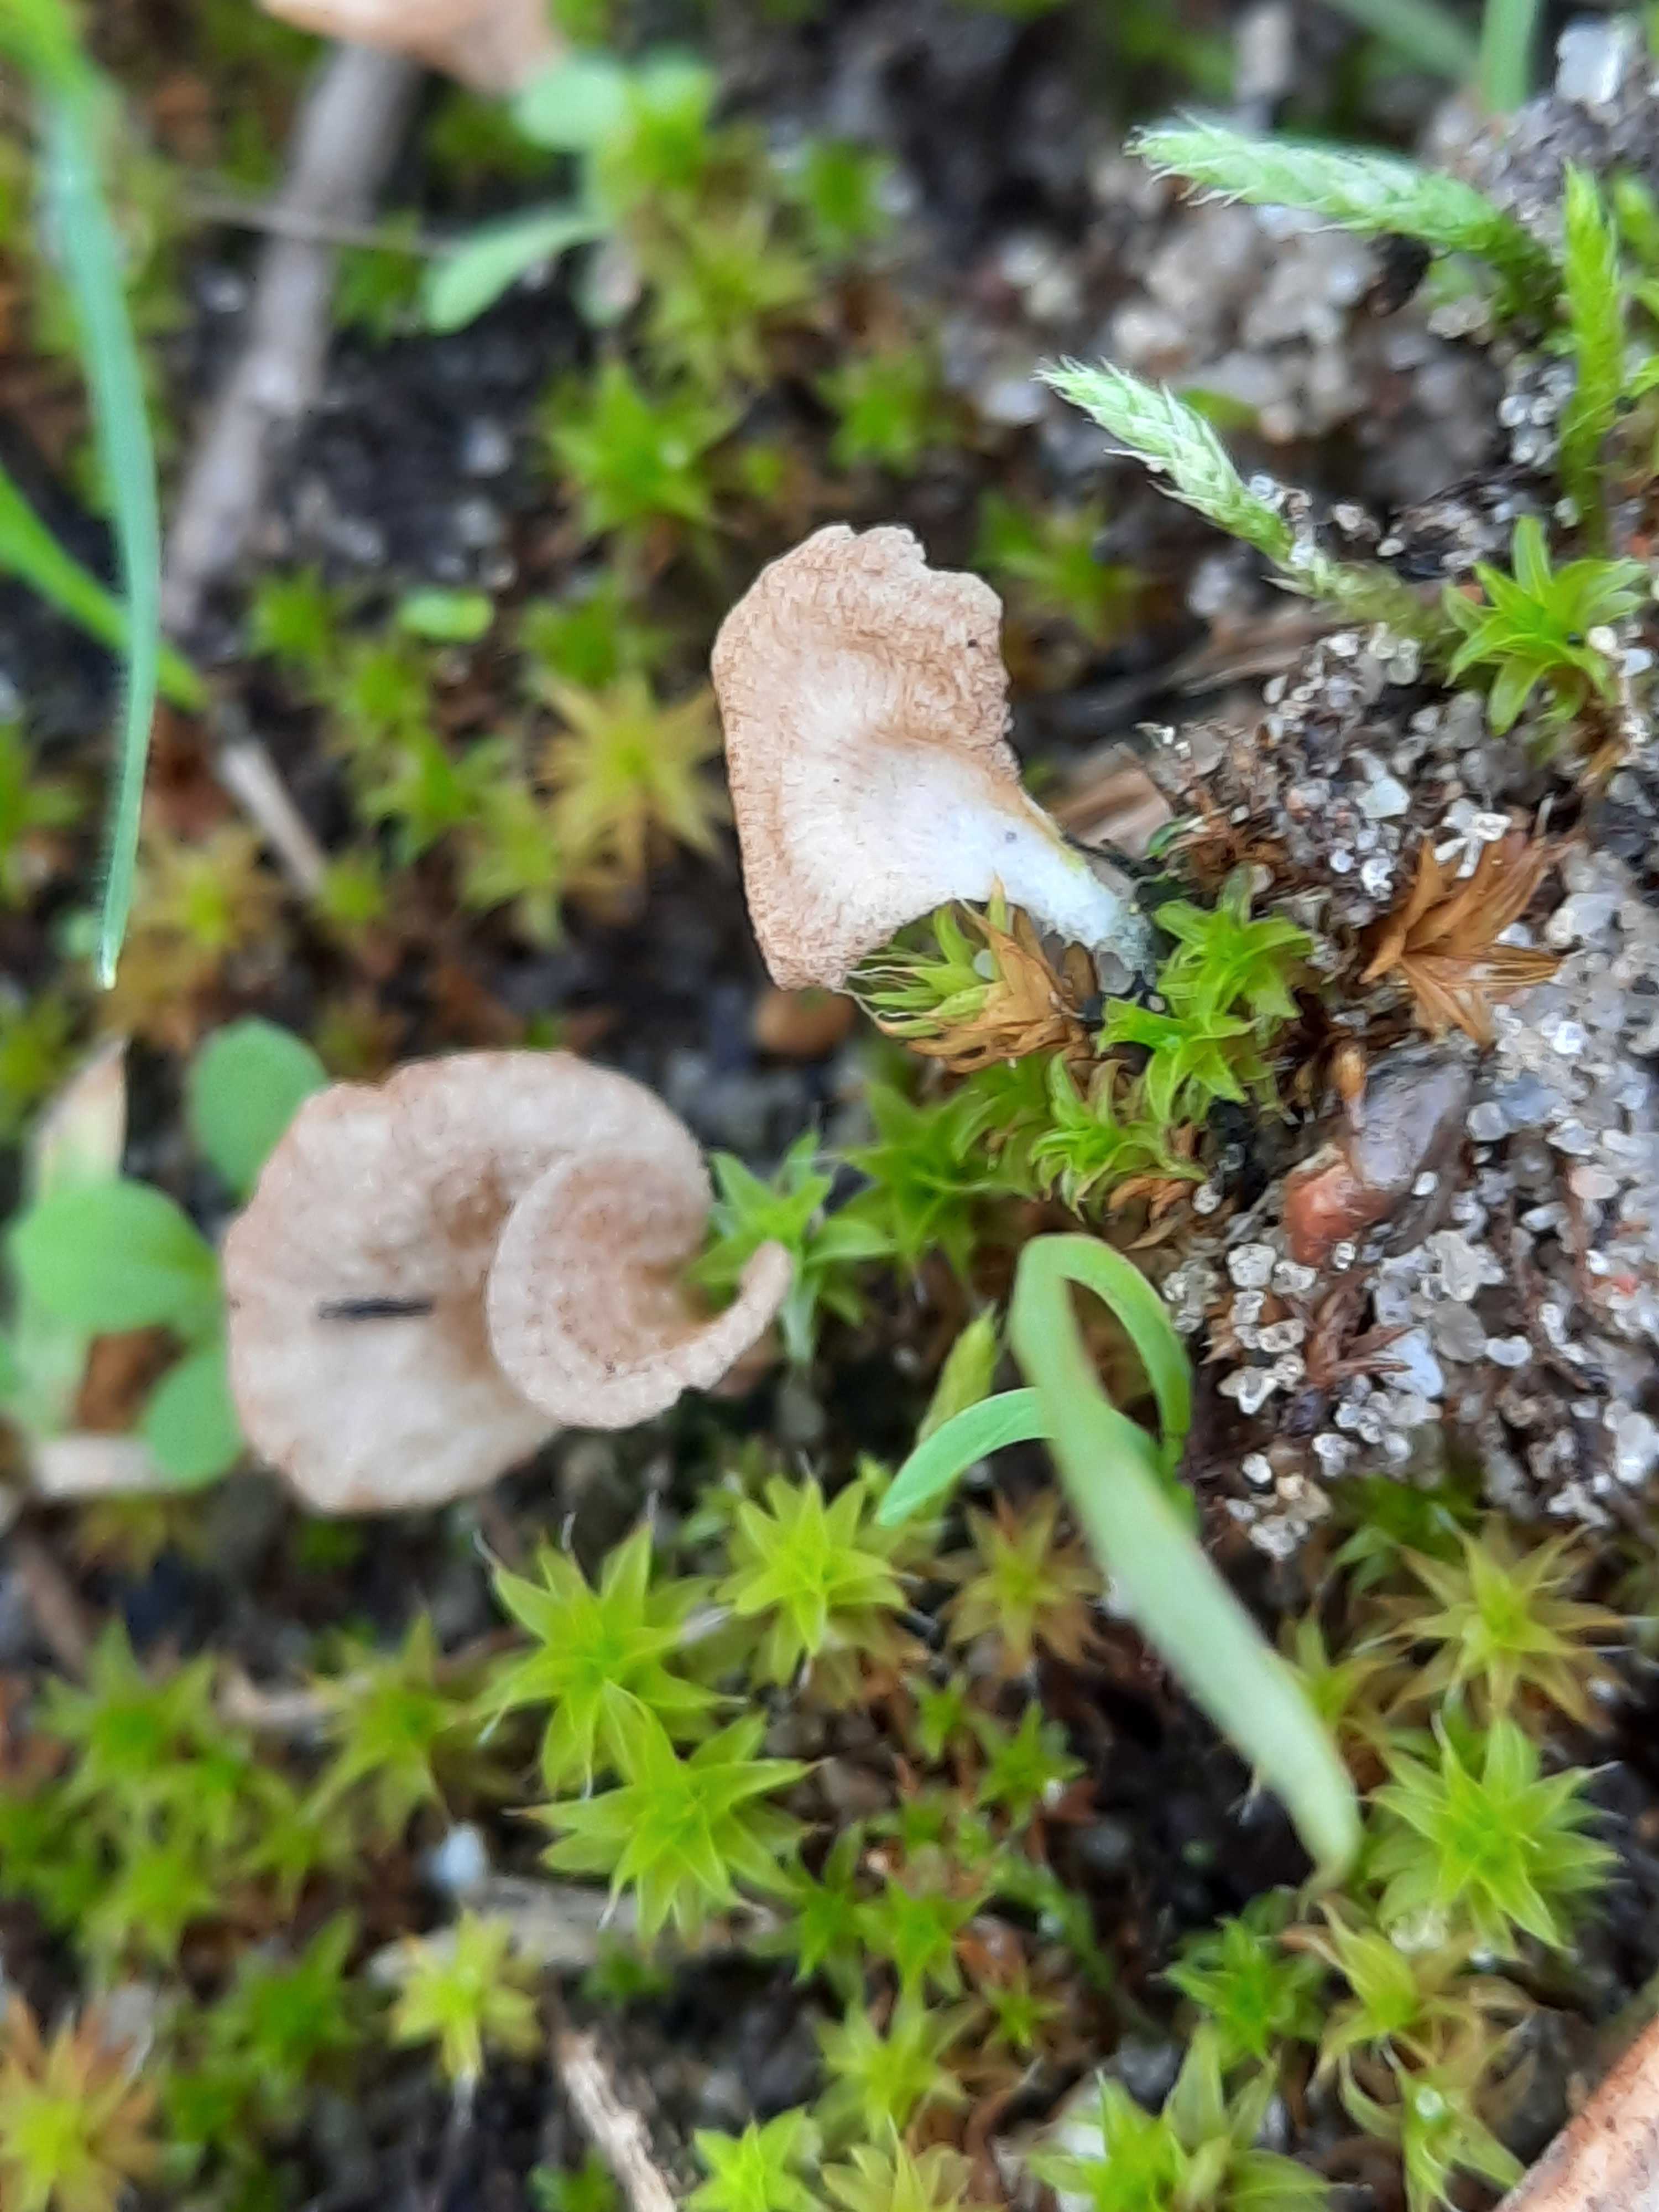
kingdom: Fungi
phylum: Basidiomycota
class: Agaricomycetes
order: Agaricales
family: Hygrophoraceae
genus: Arrhenia
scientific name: Arrhenia spathulata
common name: skæv fontænehat
